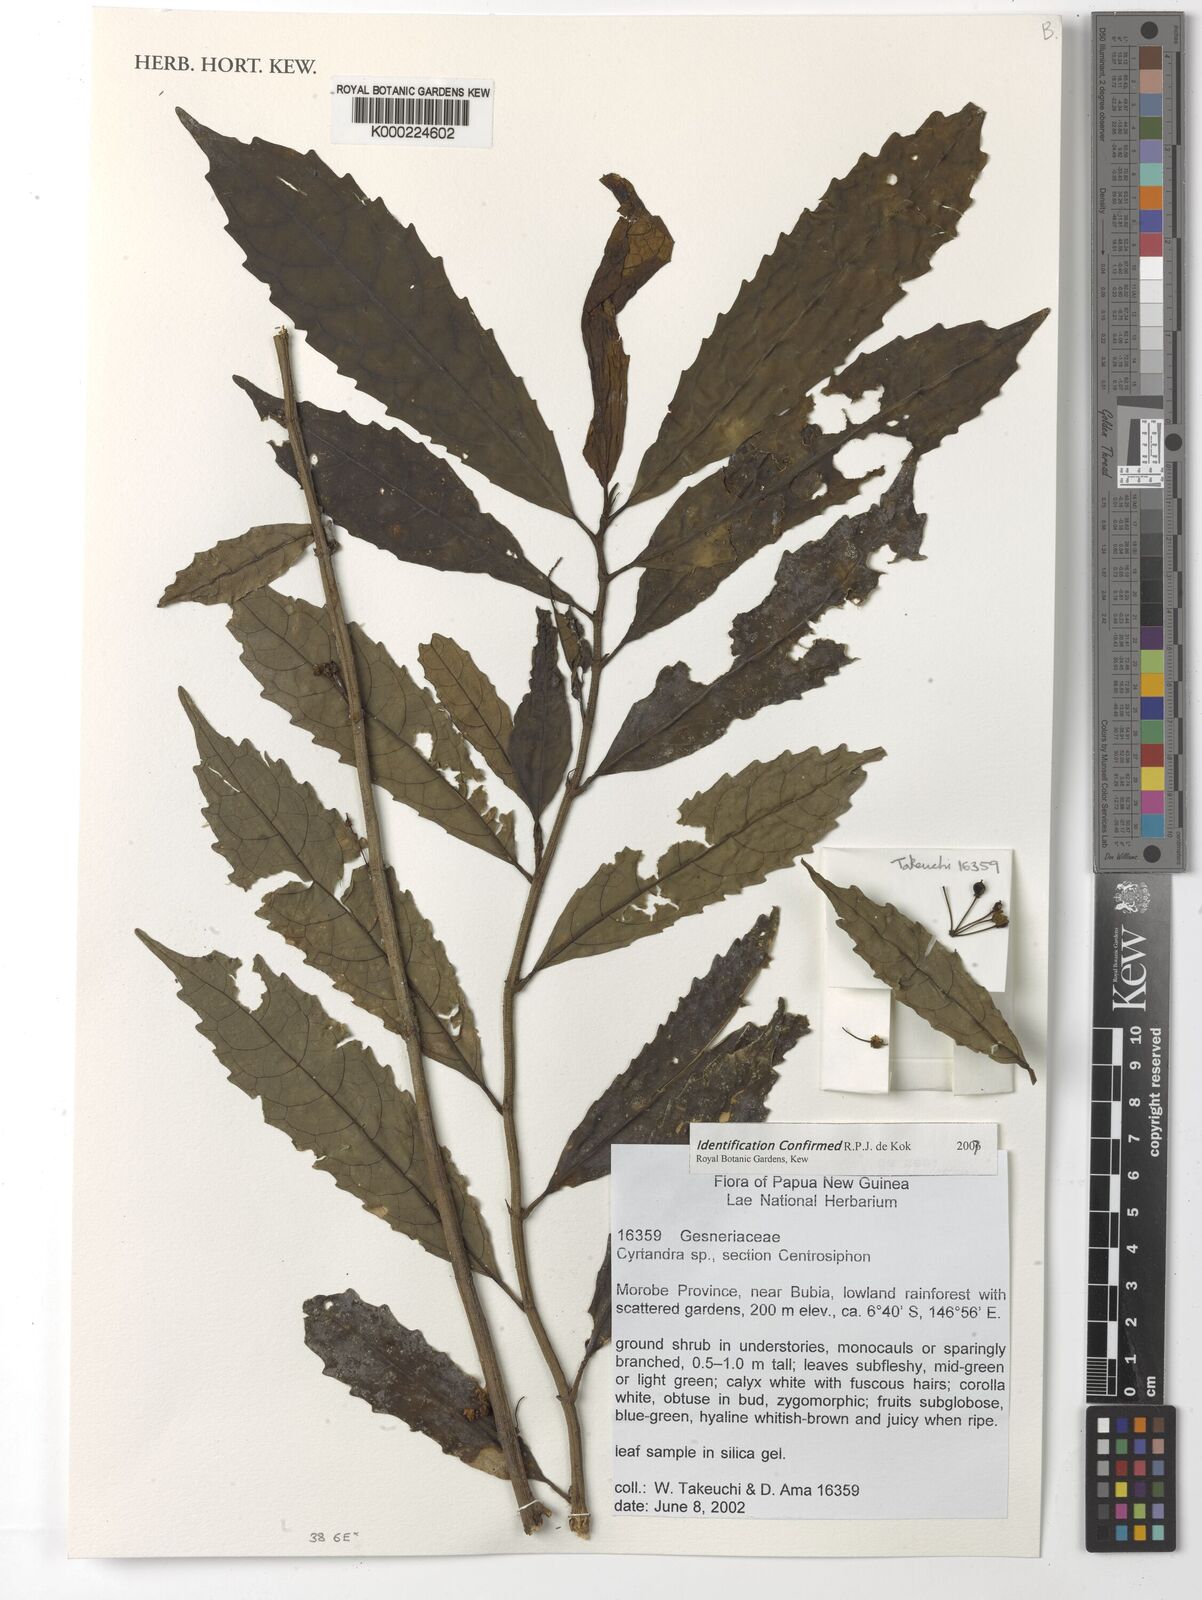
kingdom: Plantae
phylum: Tracheophyta
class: Magnoliopsida
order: Lamiales
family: Gesneriaceae
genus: Cyrtandra
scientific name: Cyrtandra
